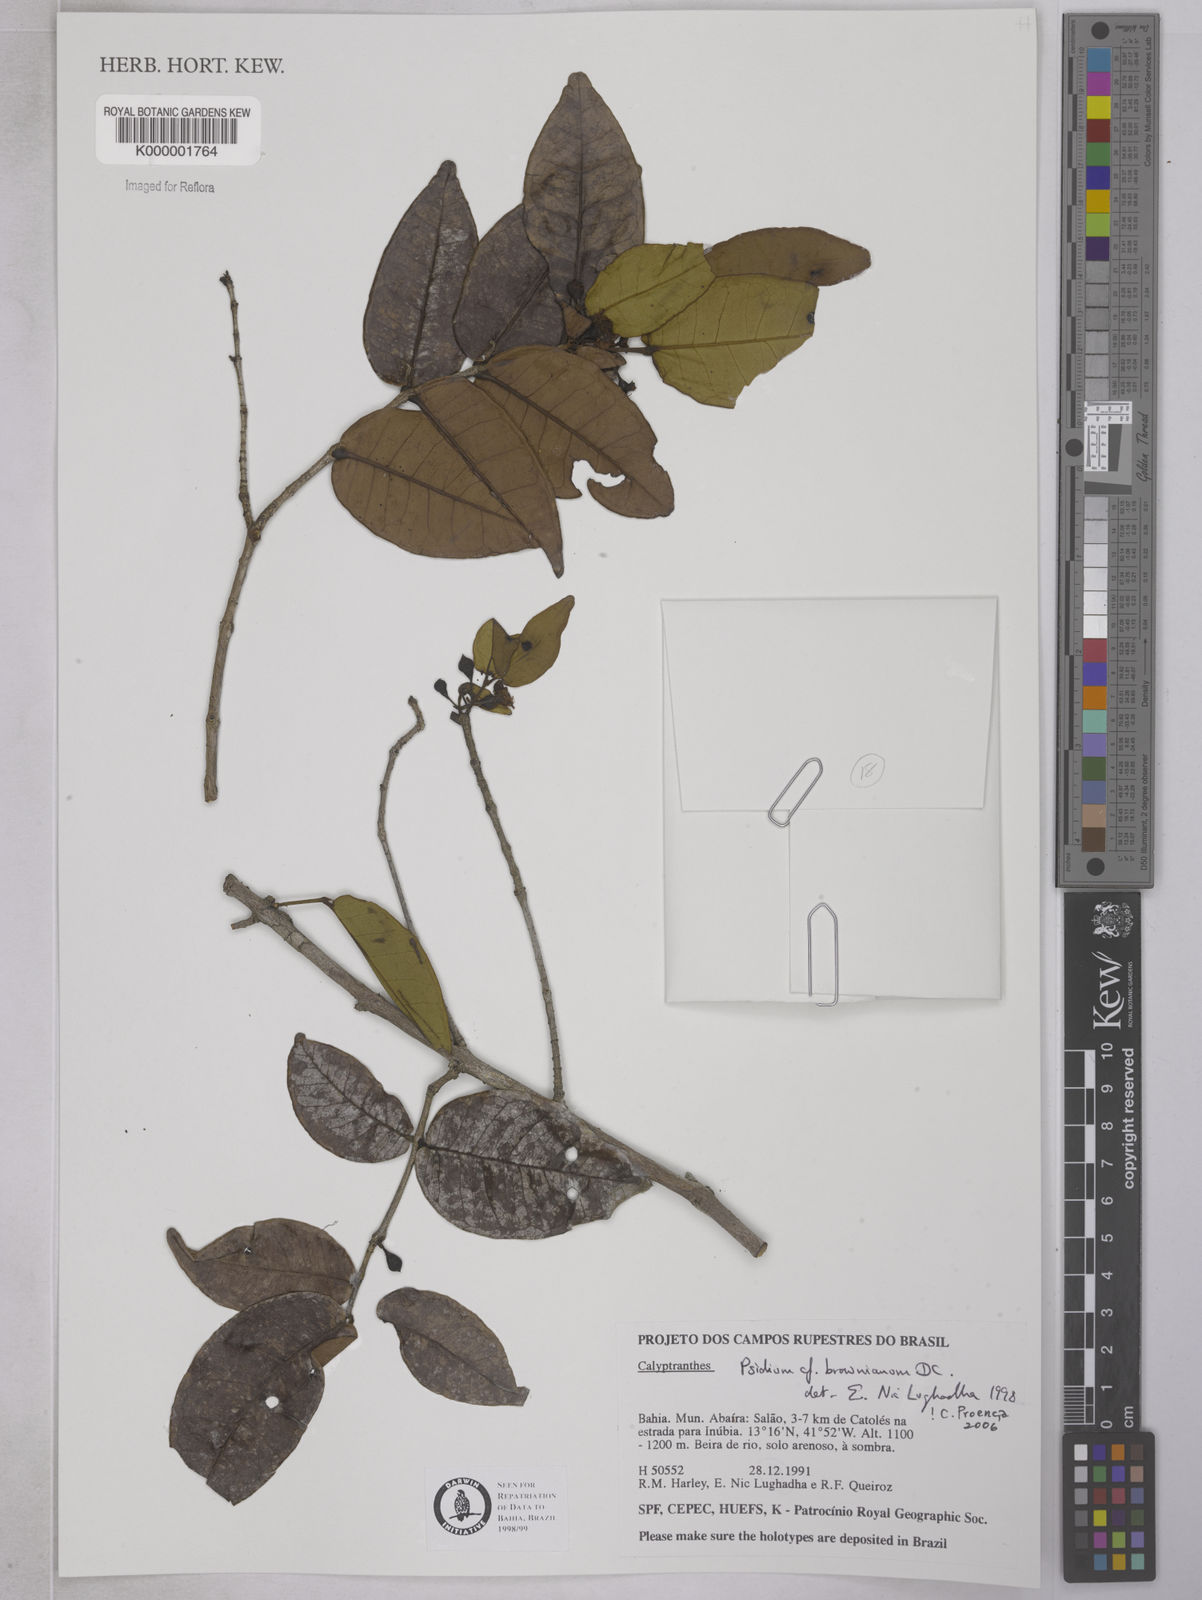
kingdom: Plantae
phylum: Tracheophyta
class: Magnoliopsida
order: Myrtales
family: Myrtaceae
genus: Psidium
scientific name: Psidium brownianum
